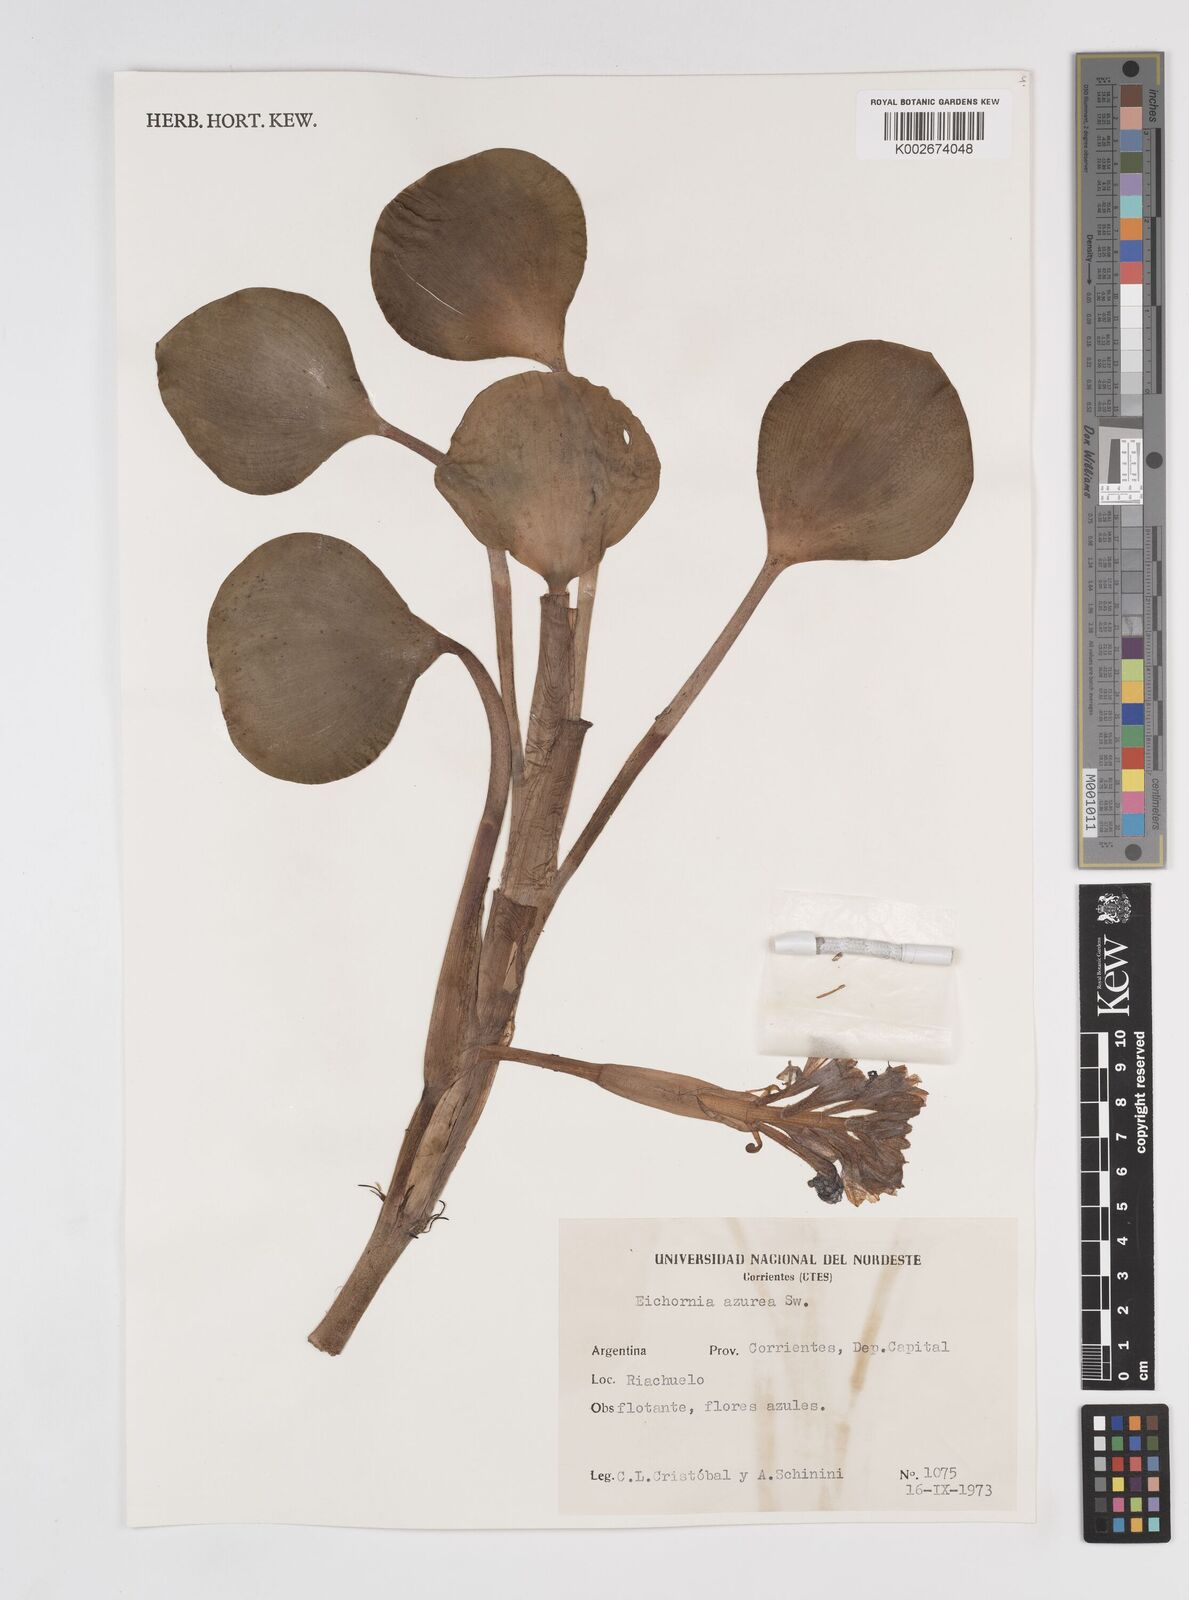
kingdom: Plantae
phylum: Tracheophyta
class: Liliopsida
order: Commelinales
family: Pontederiaceae
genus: Pontederia
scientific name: Pontederia azurea
